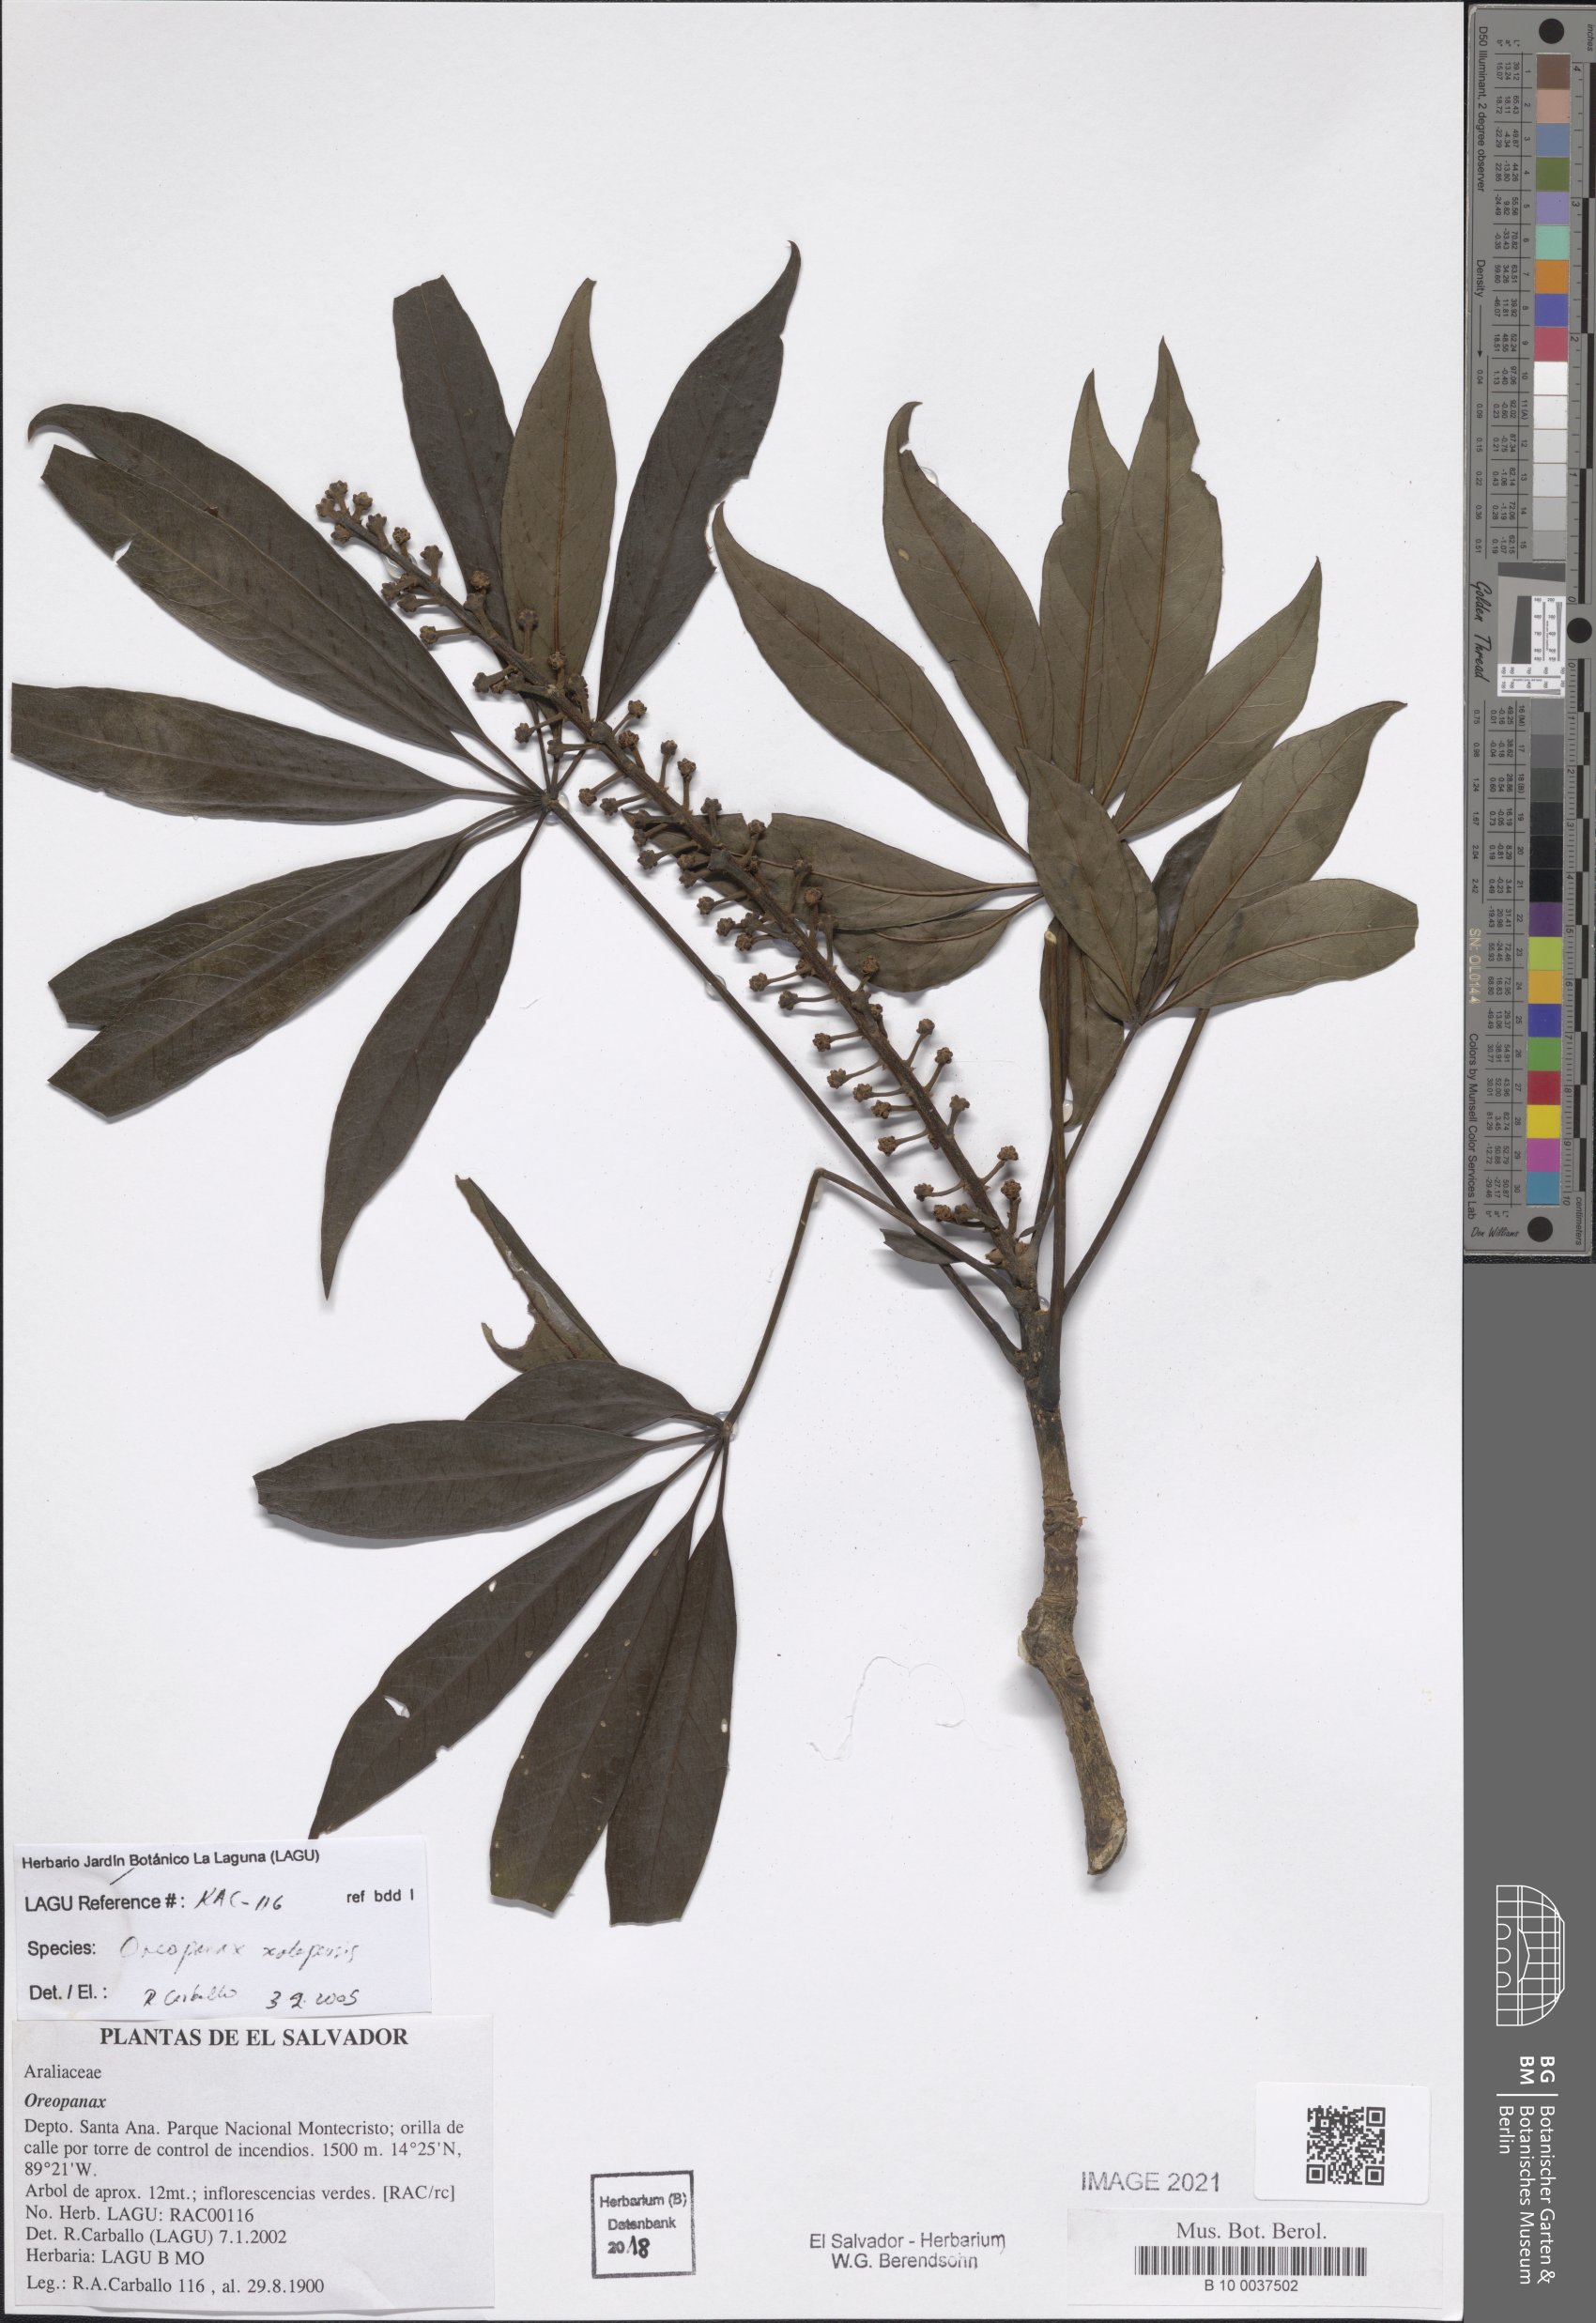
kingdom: Plantae
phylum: Tracheophyta
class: Magnoliopsida
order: Apiales
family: Araliaceae
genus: Oreopanax
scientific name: Oreopanax xalapensis
